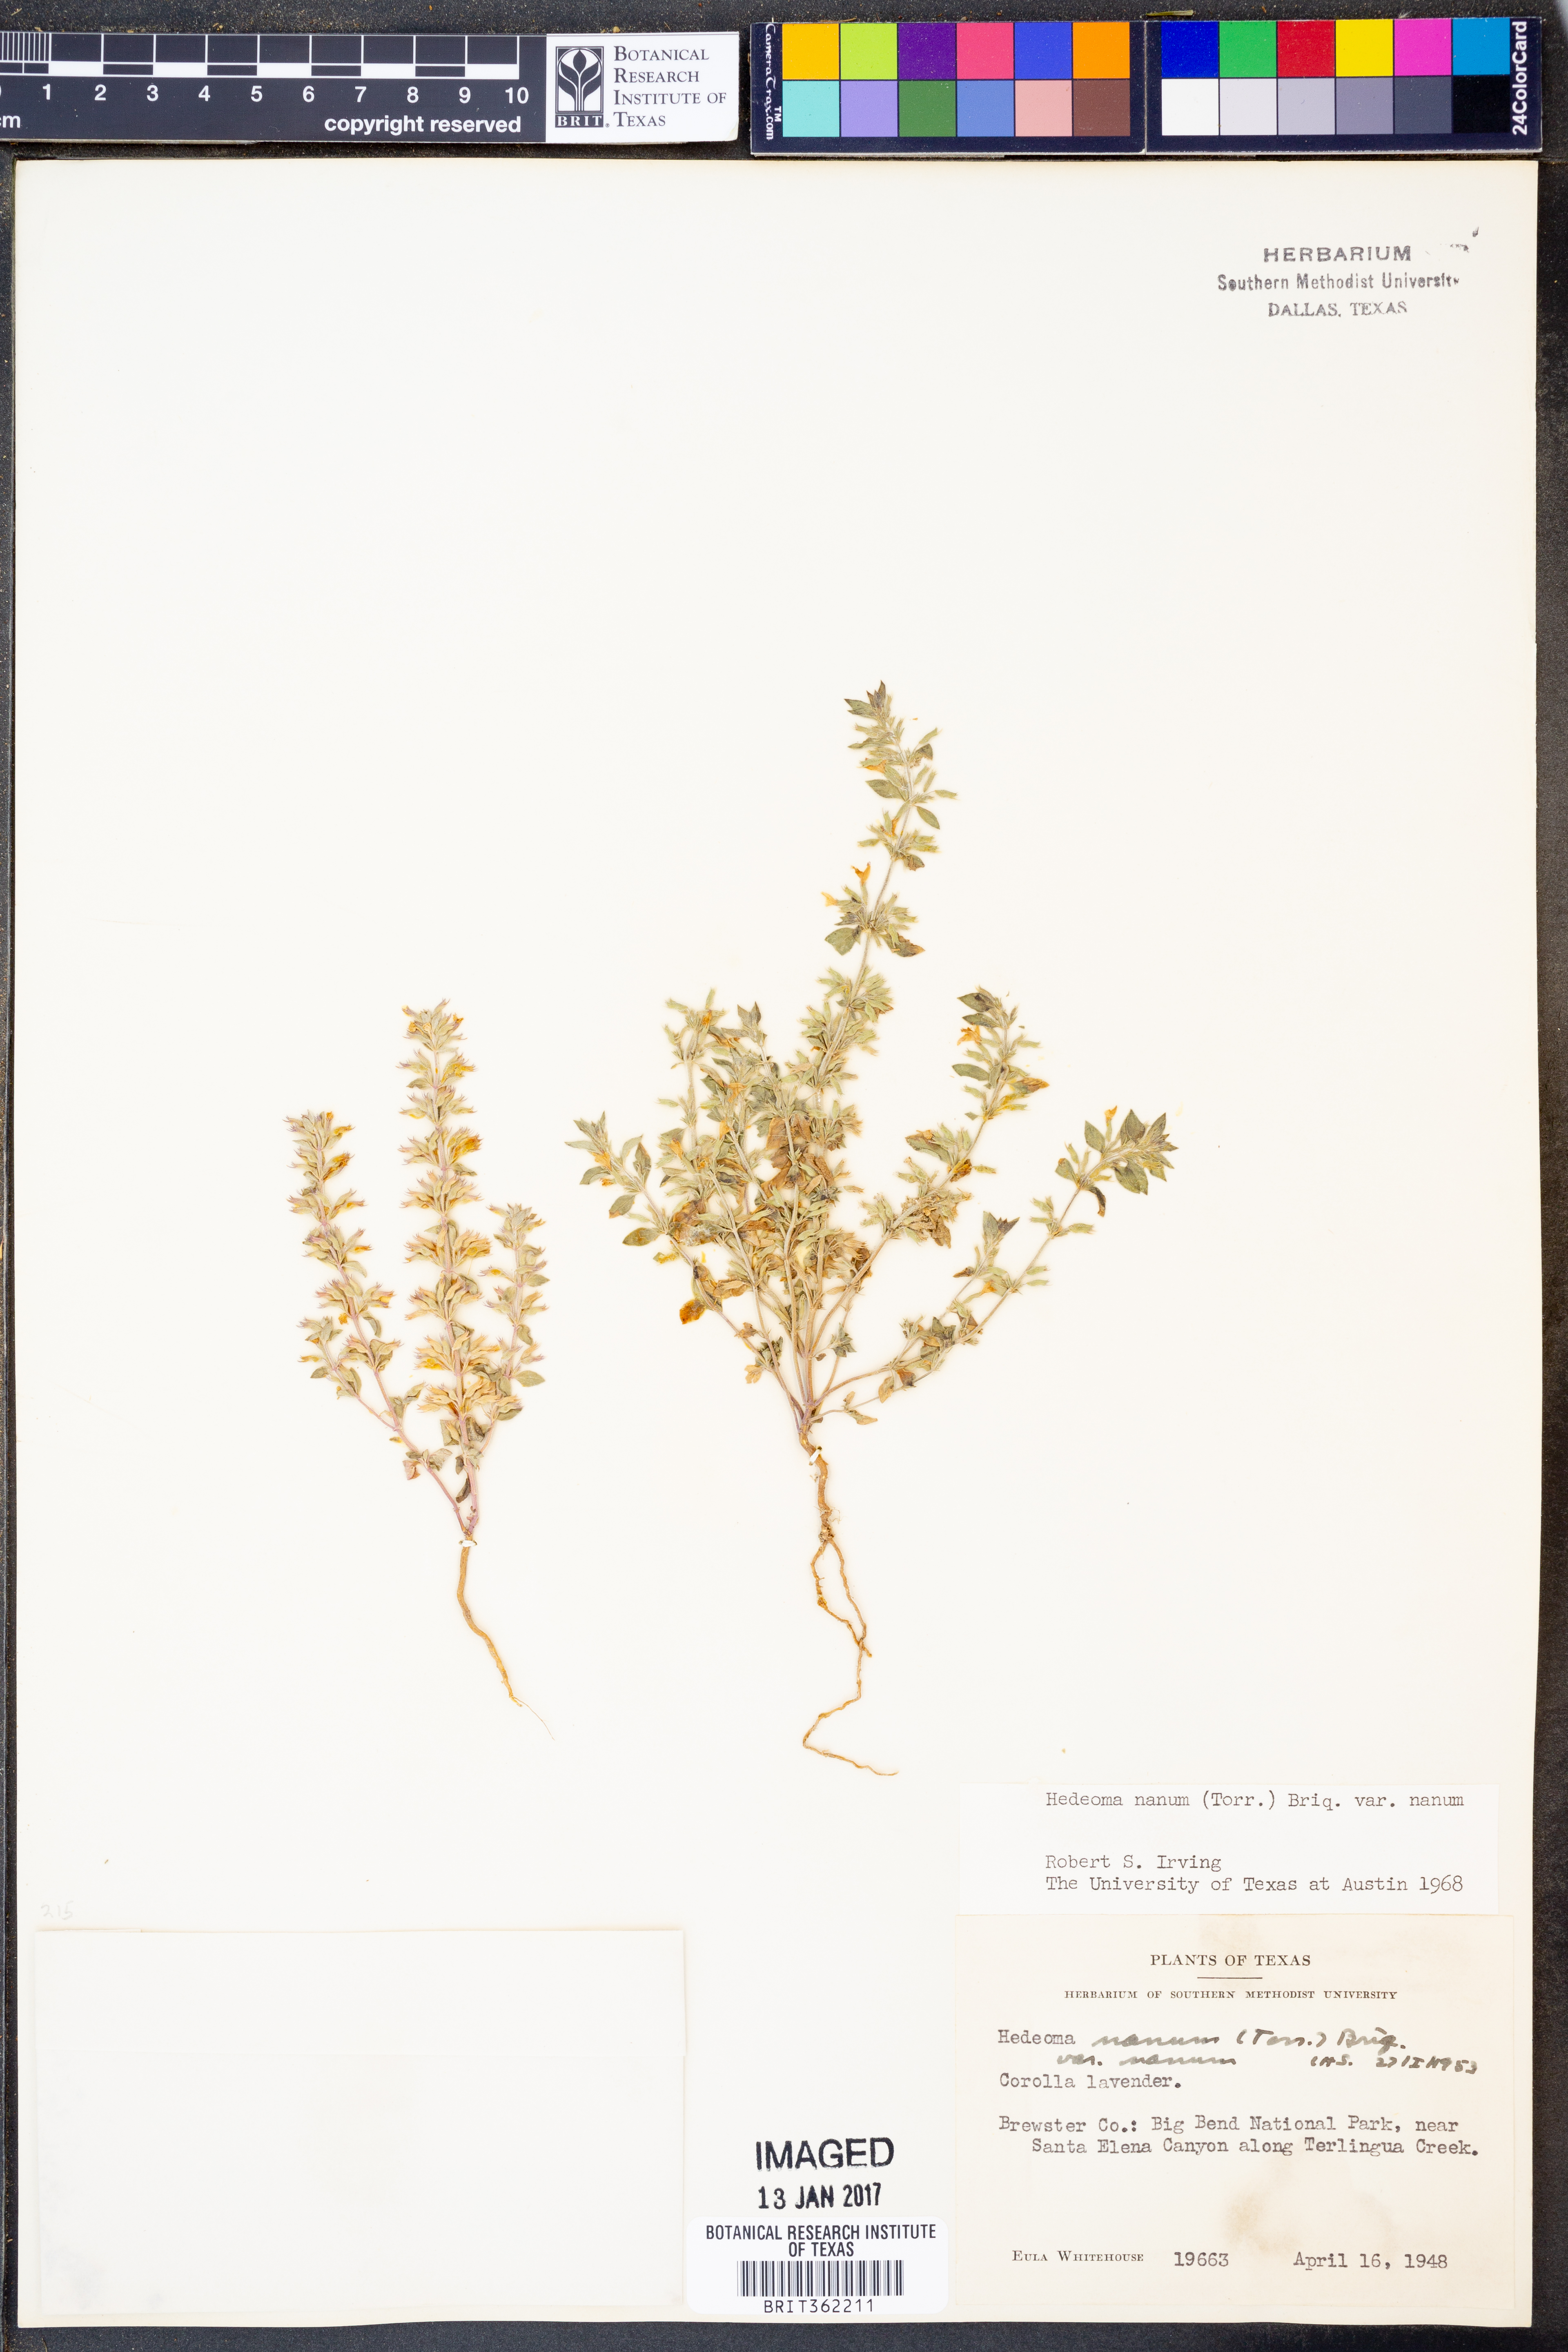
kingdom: Plantae
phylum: Tracheophyta
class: Magnoliopsida
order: Lamiales
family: Lamiaceae
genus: Hedeoma
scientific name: Hedeoma nana
